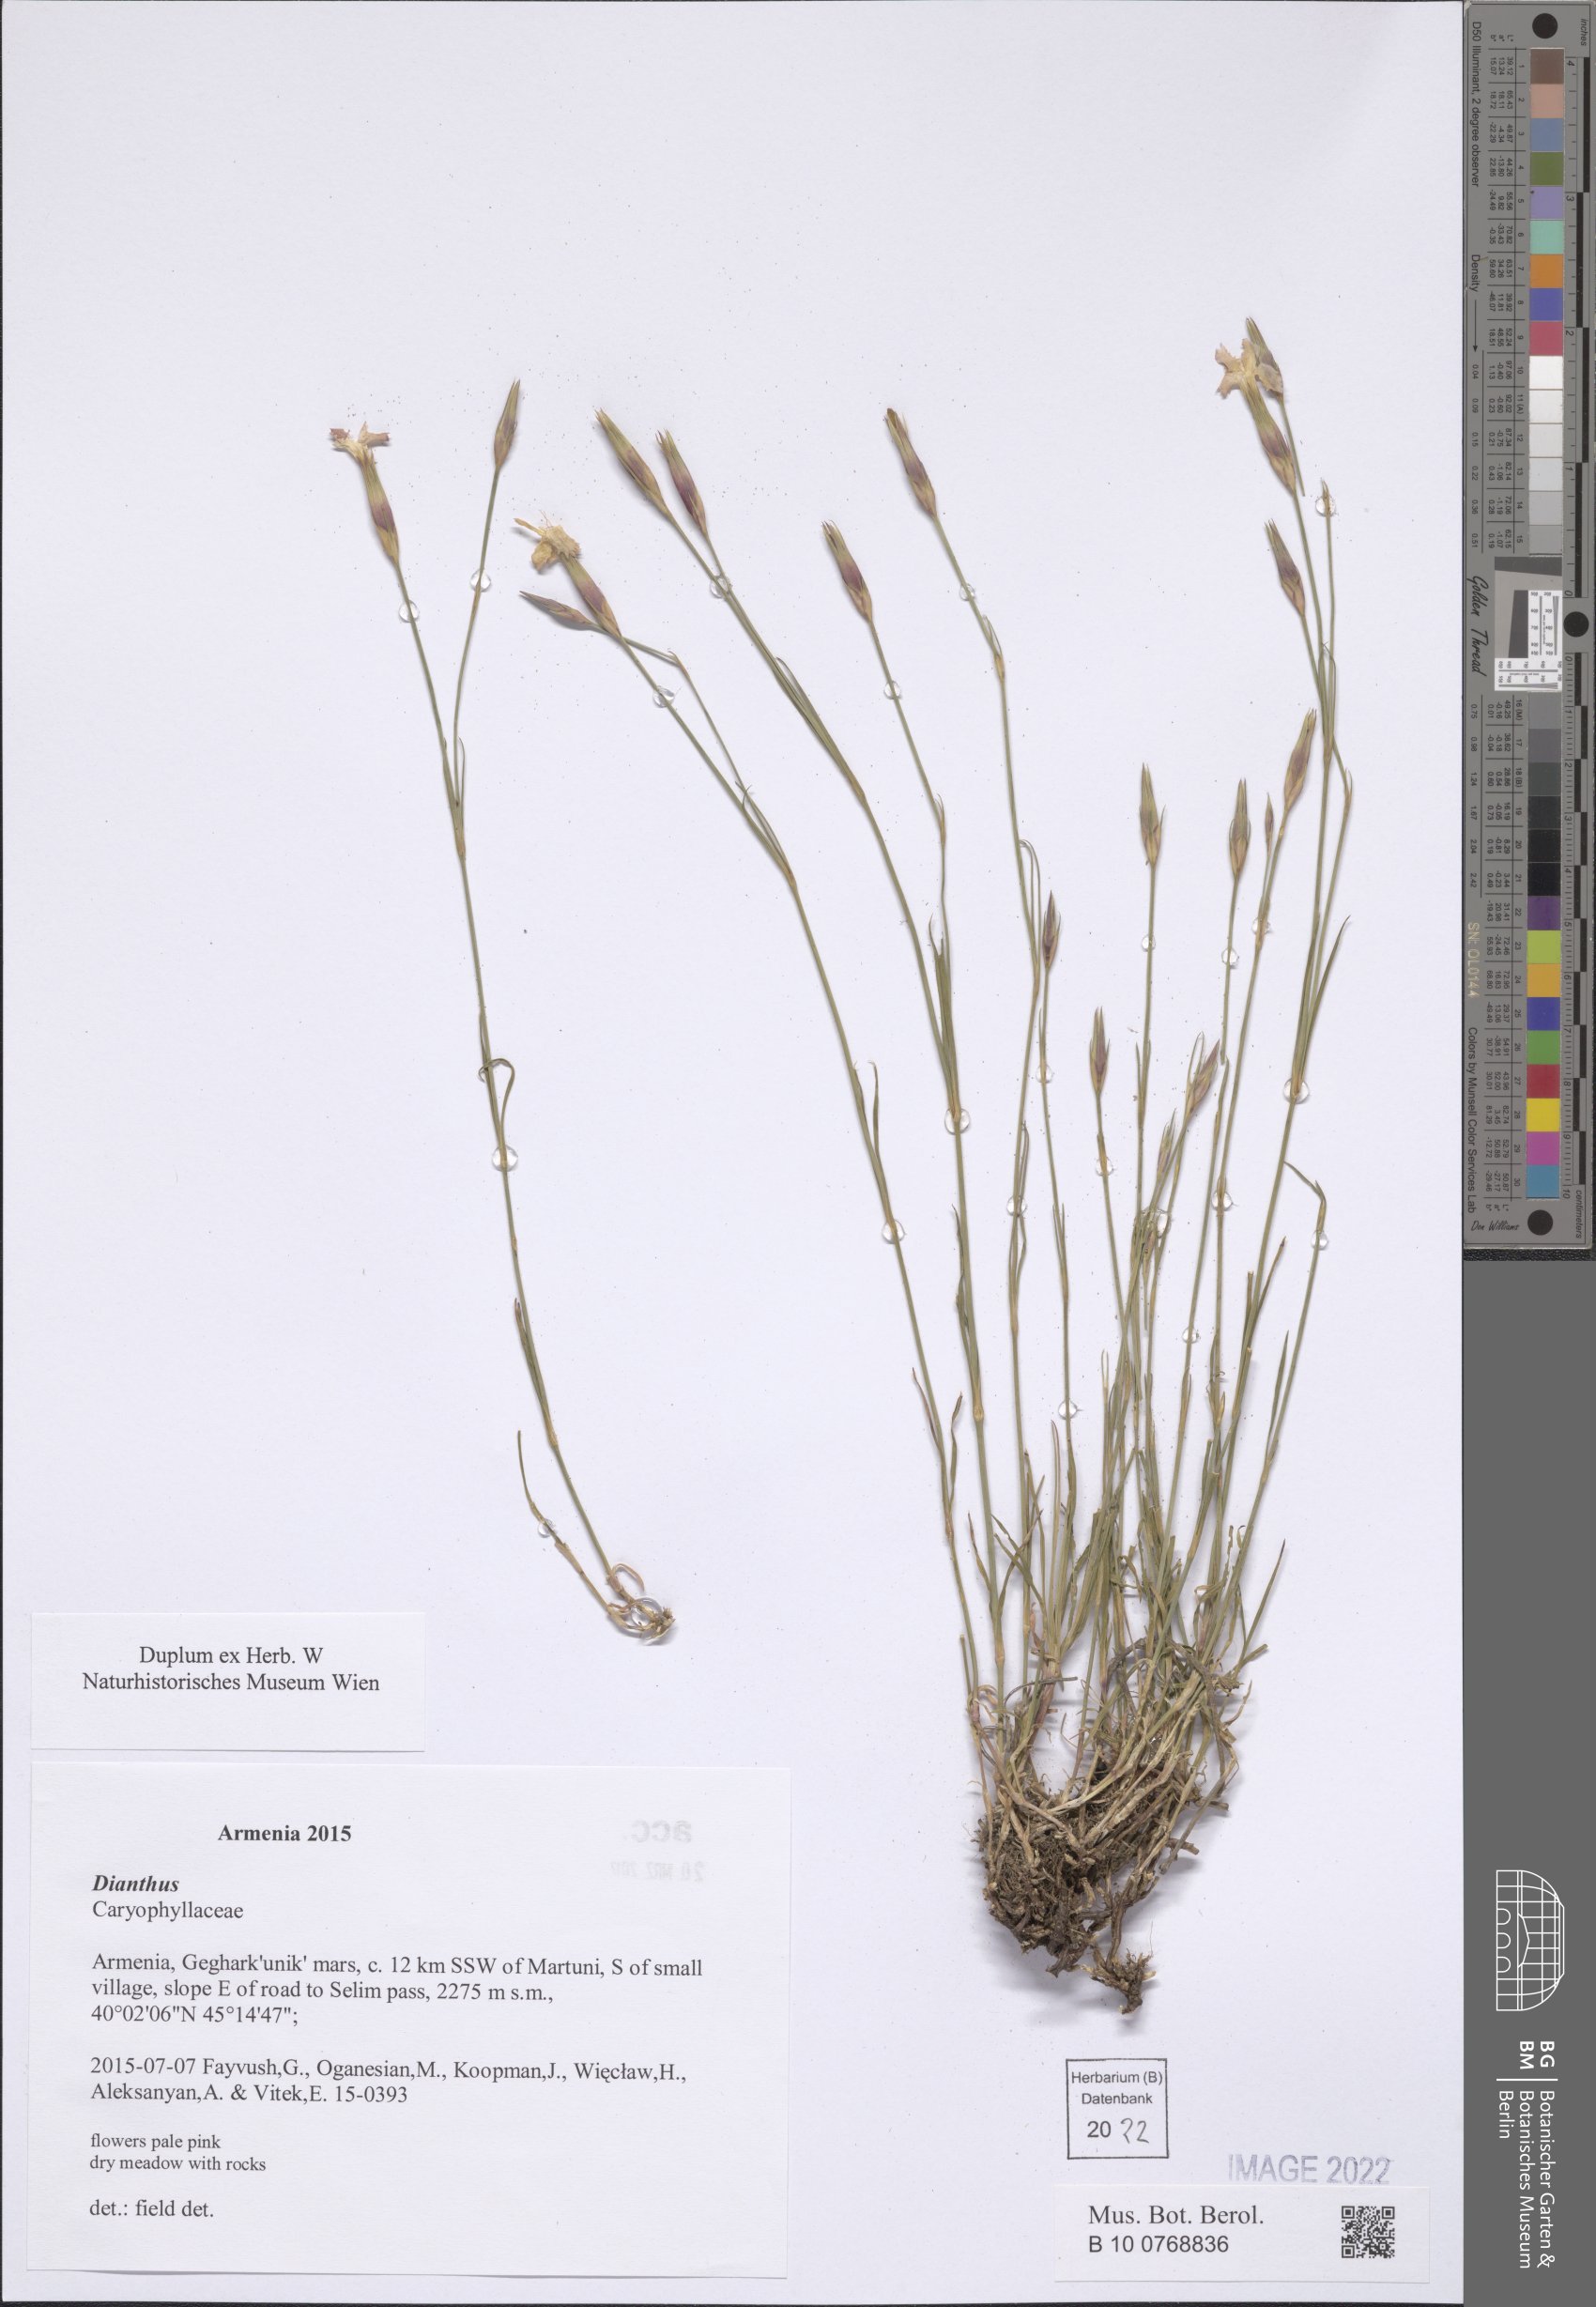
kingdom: Plantae
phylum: Tracheophyta
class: Magnoliopsida
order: Caryophyllales
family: Caryophyllaceae
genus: Dianthus
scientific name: Dianthus
